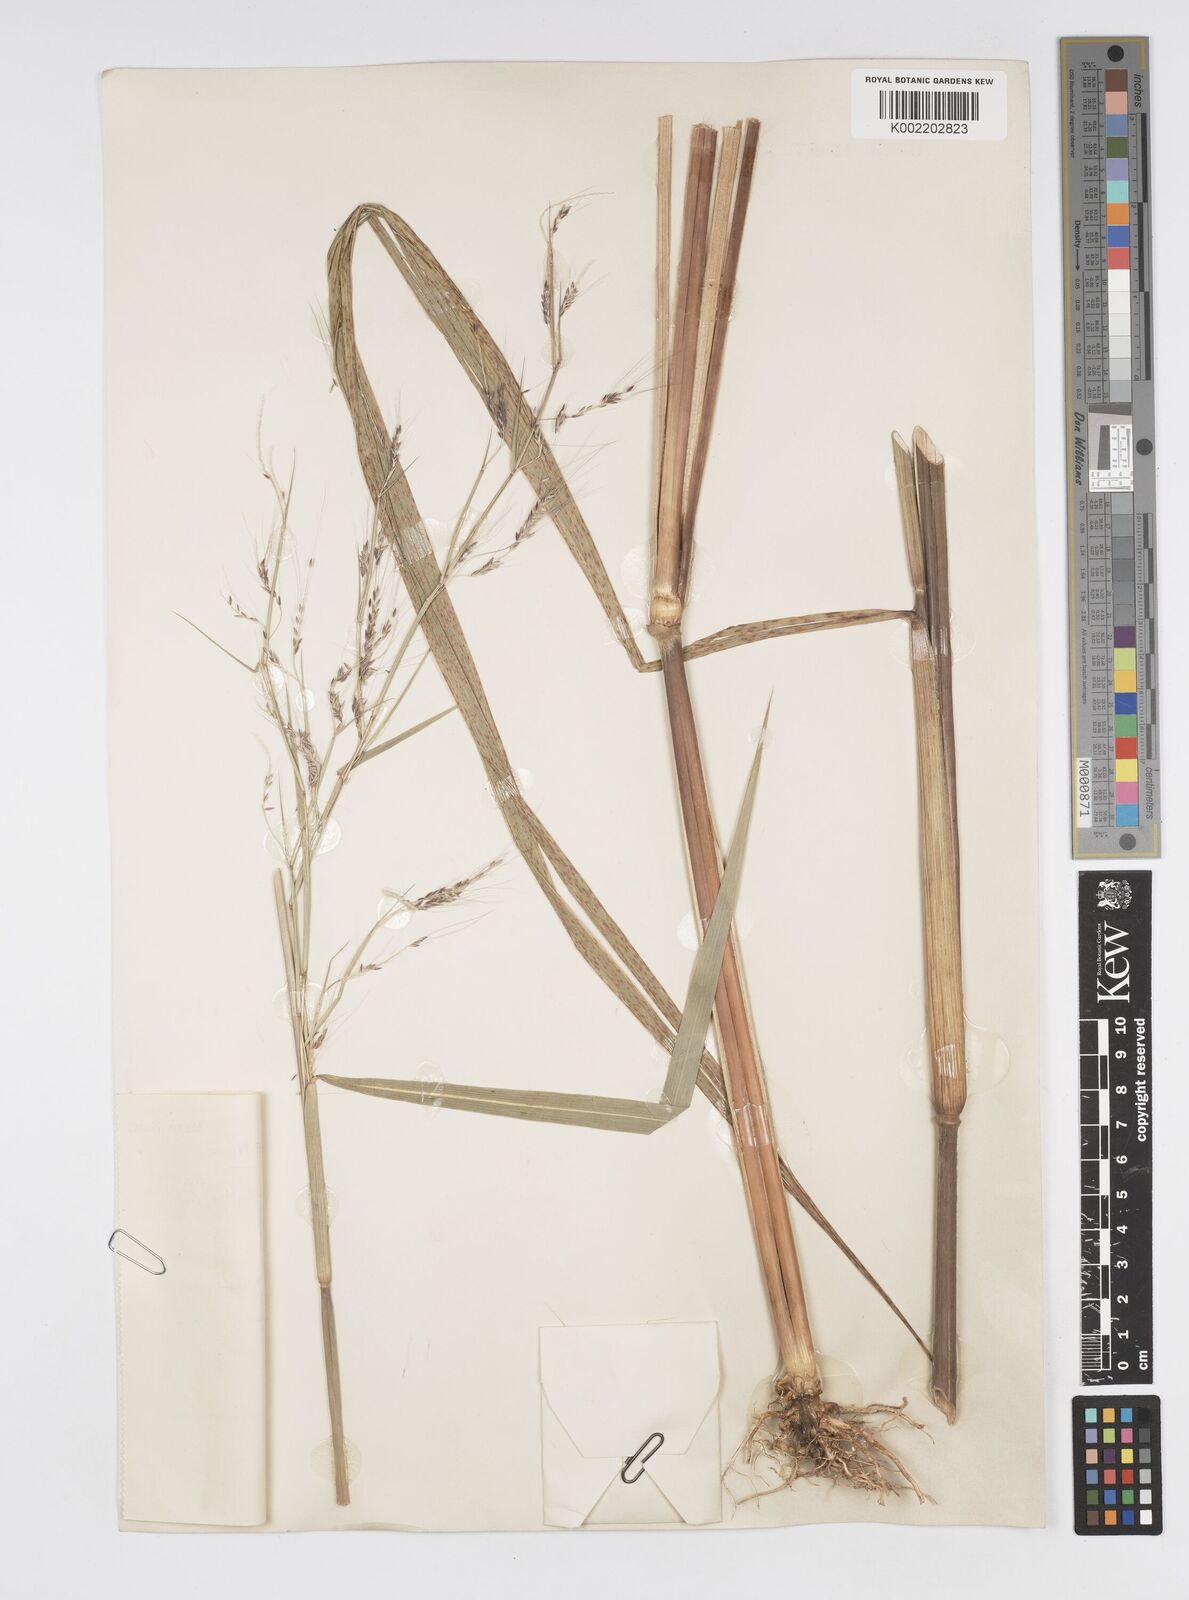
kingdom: Plantae
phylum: Tracheophyta
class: Liliopsida
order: Poales
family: Poaceae
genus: Cenchrus
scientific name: Cenchrus unisetus
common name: Natal grass
